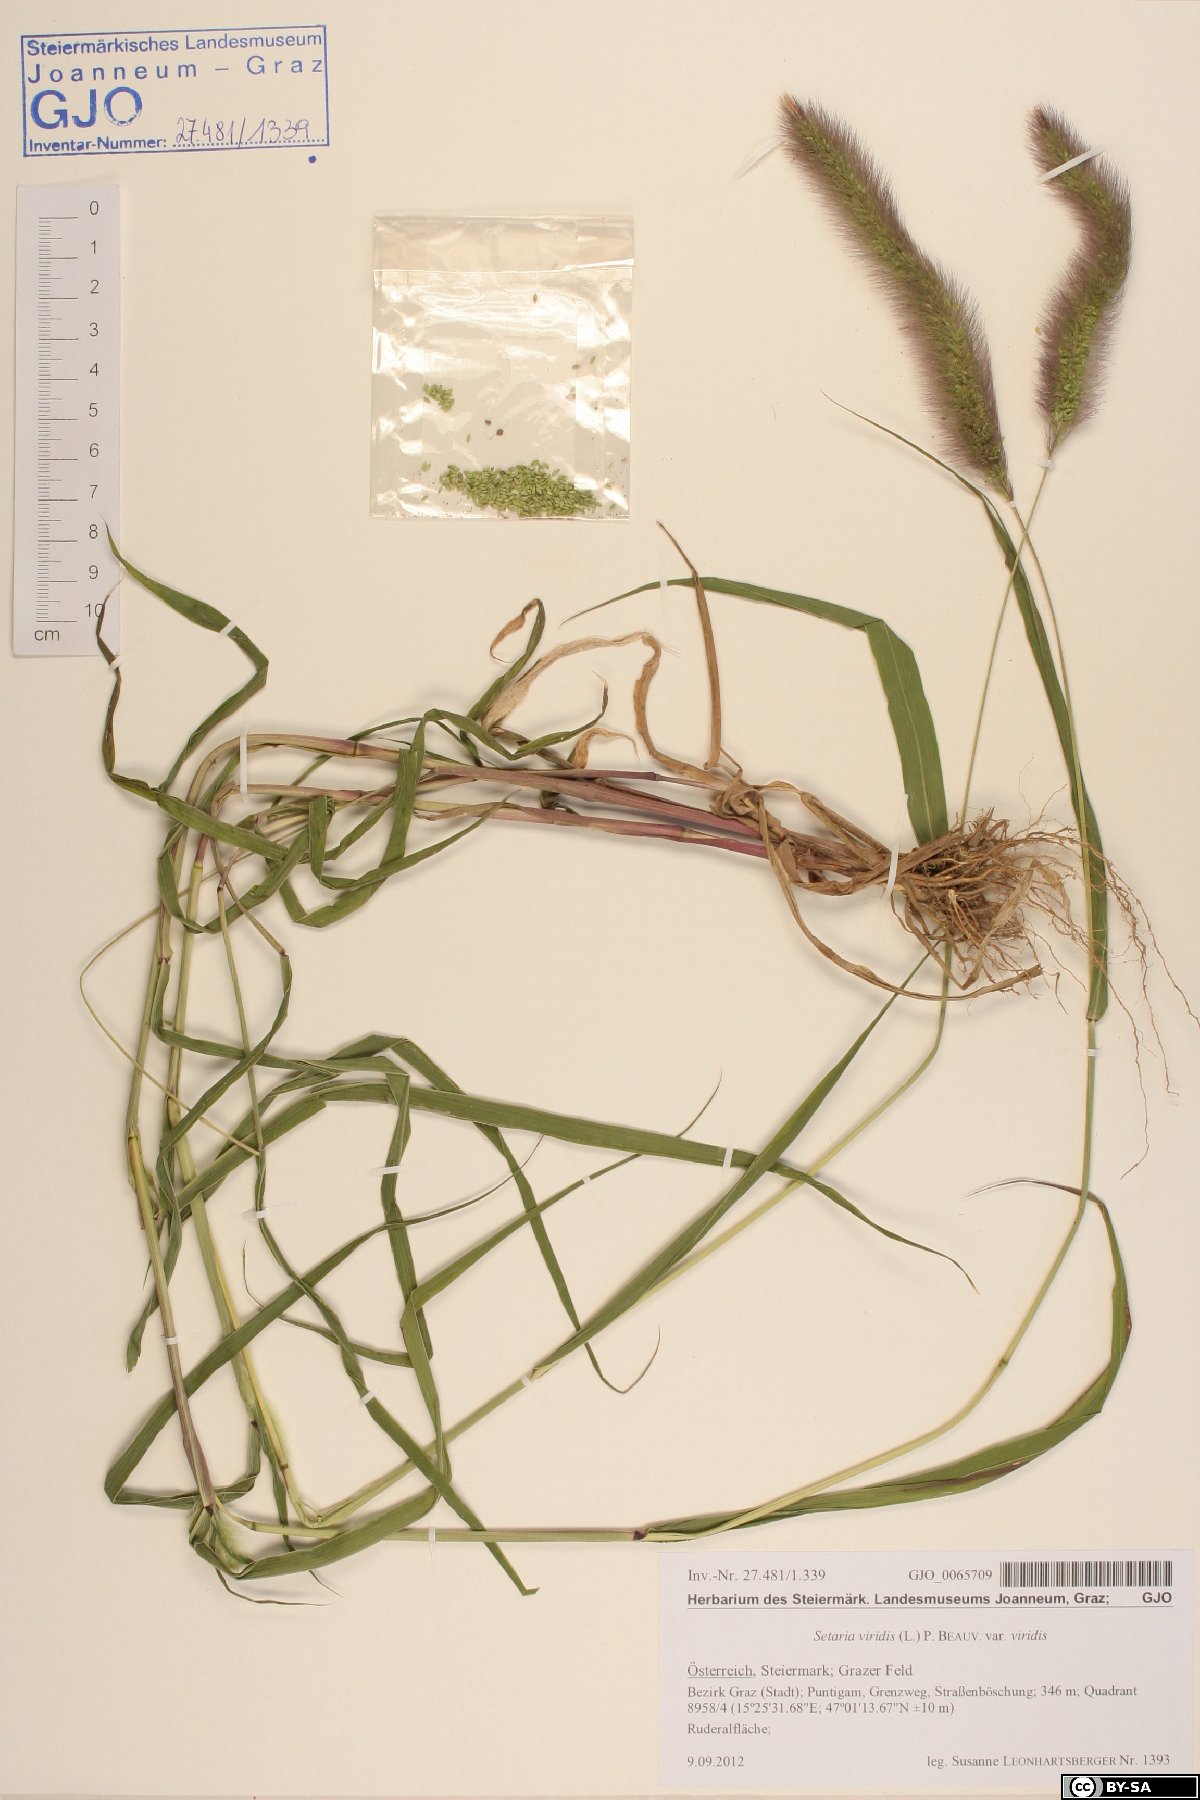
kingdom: Plantae
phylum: Tracheophyta
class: Liliopsida
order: Poales
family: Poaceae
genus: Setaria
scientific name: Setaria viridis
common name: Green bristlegrass
